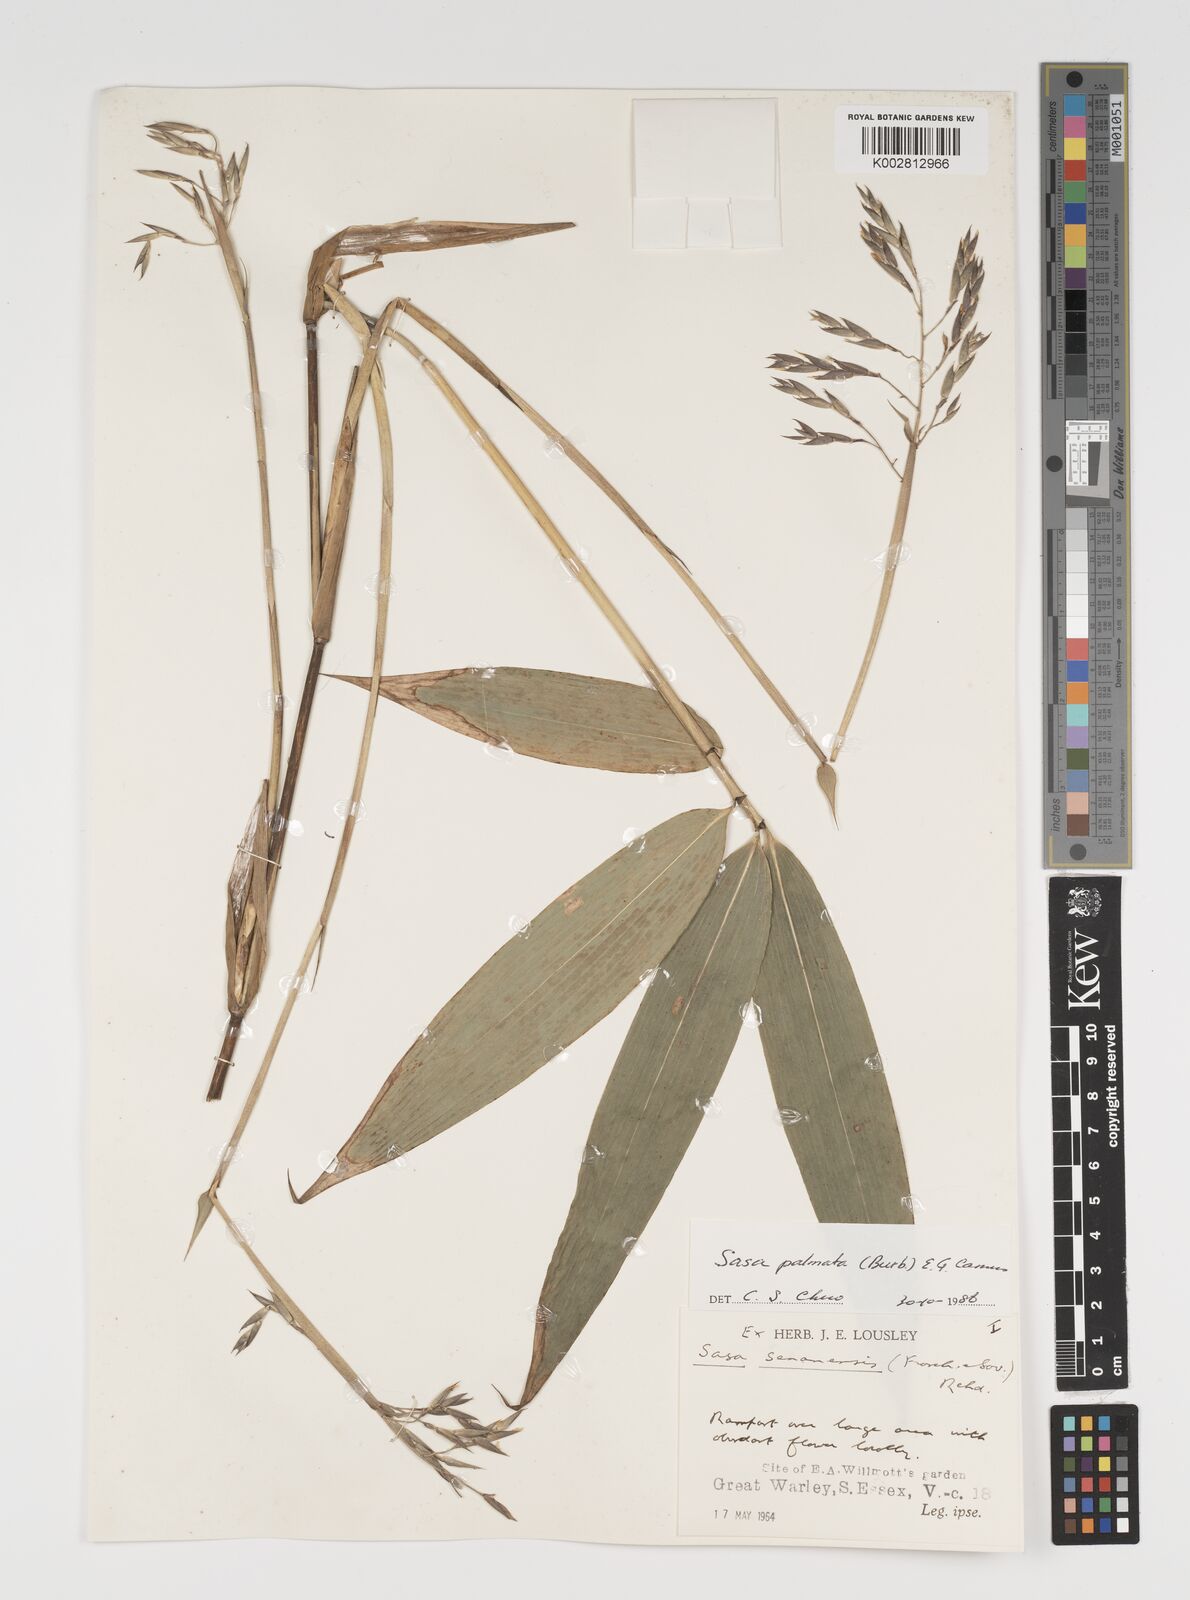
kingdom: Plantae
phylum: Tracheophyta
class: Liliopsida
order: Poales
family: Poaceae
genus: Sasa
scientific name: Sasa palmata
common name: Broad-leaved bamboo
